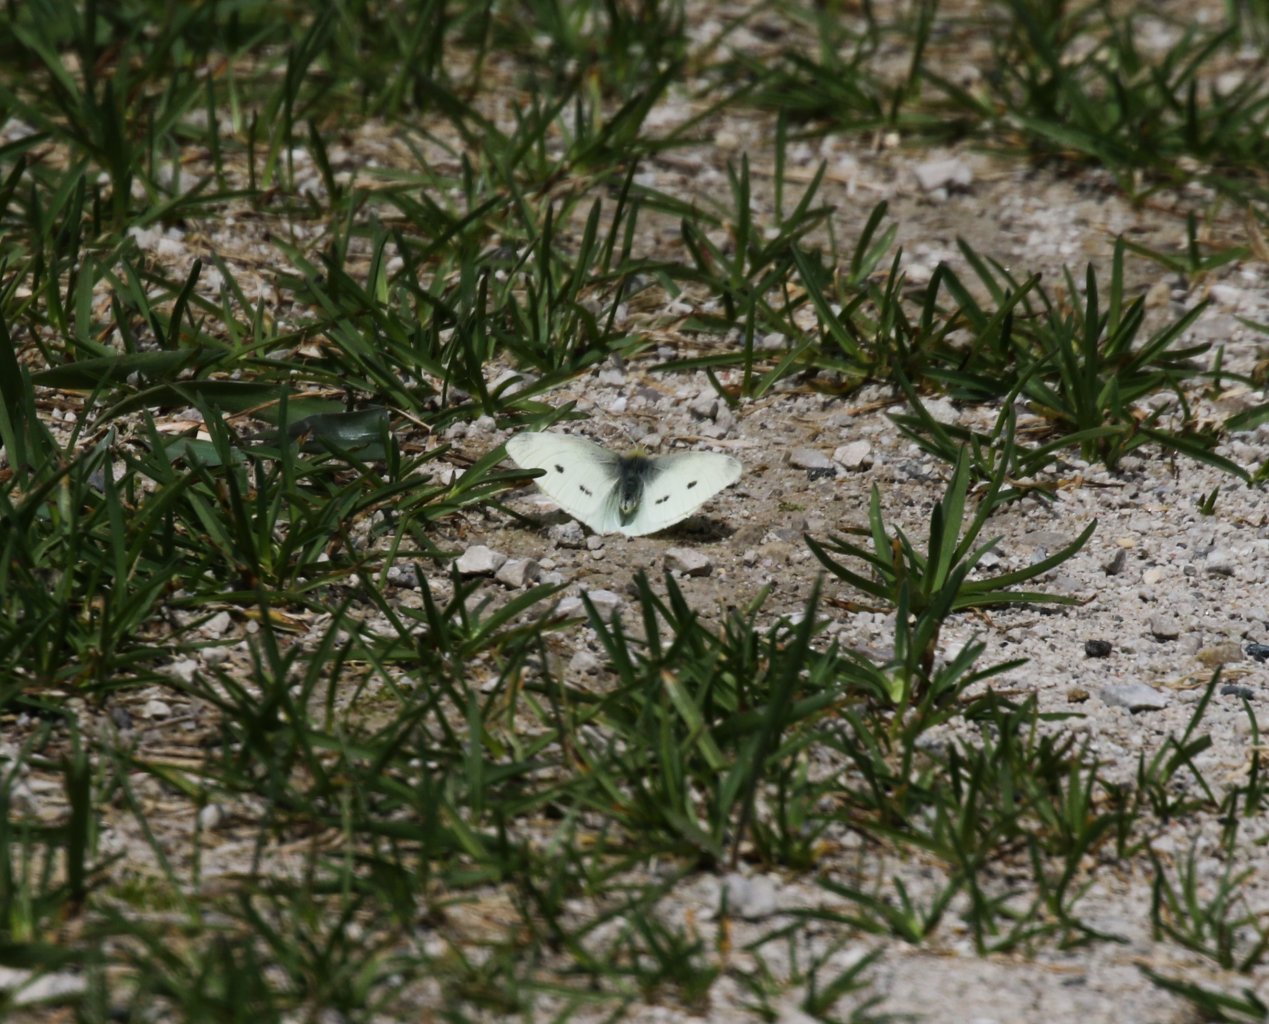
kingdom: Animalia
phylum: Arthropoda
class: Insecta
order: Lepidoptera
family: Pieridae
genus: Pieris
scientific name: Pieris rapae
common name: Cabbage White
